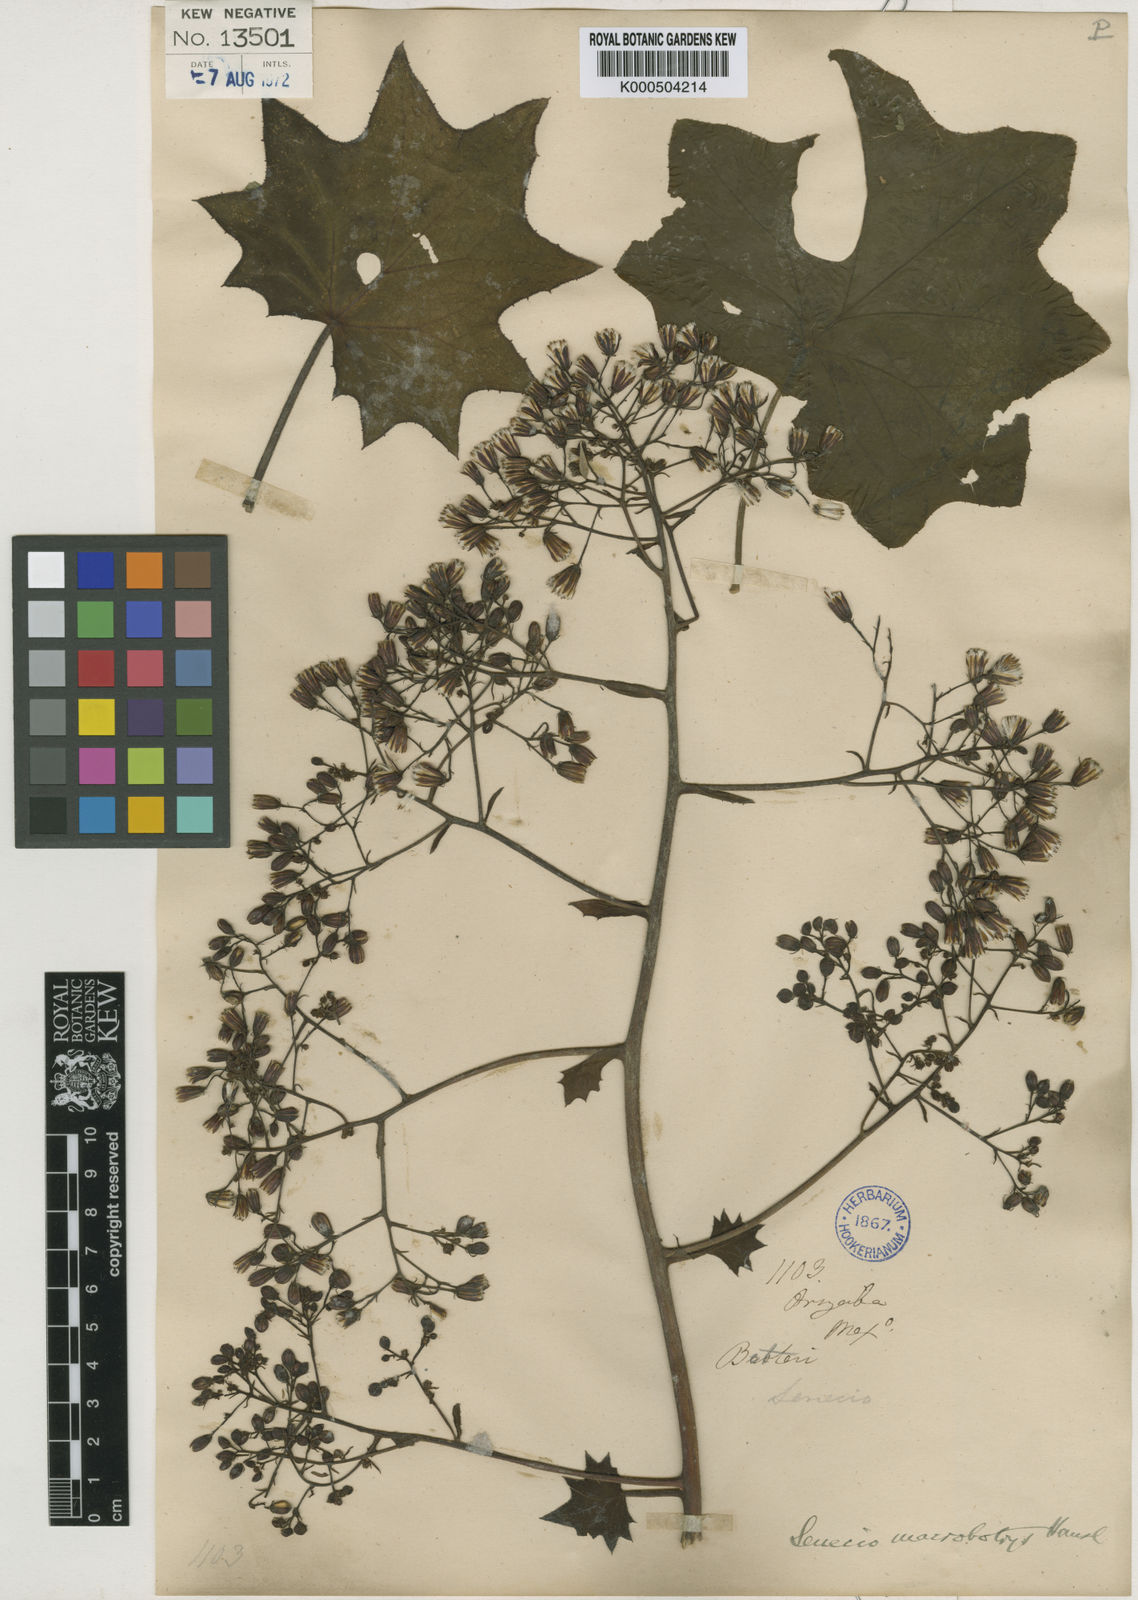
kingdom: Plantae
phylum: Tracheophyta
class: Magnoliopsida
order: Asterales
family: Asteraceae
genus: Roldana
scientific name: Roldana
